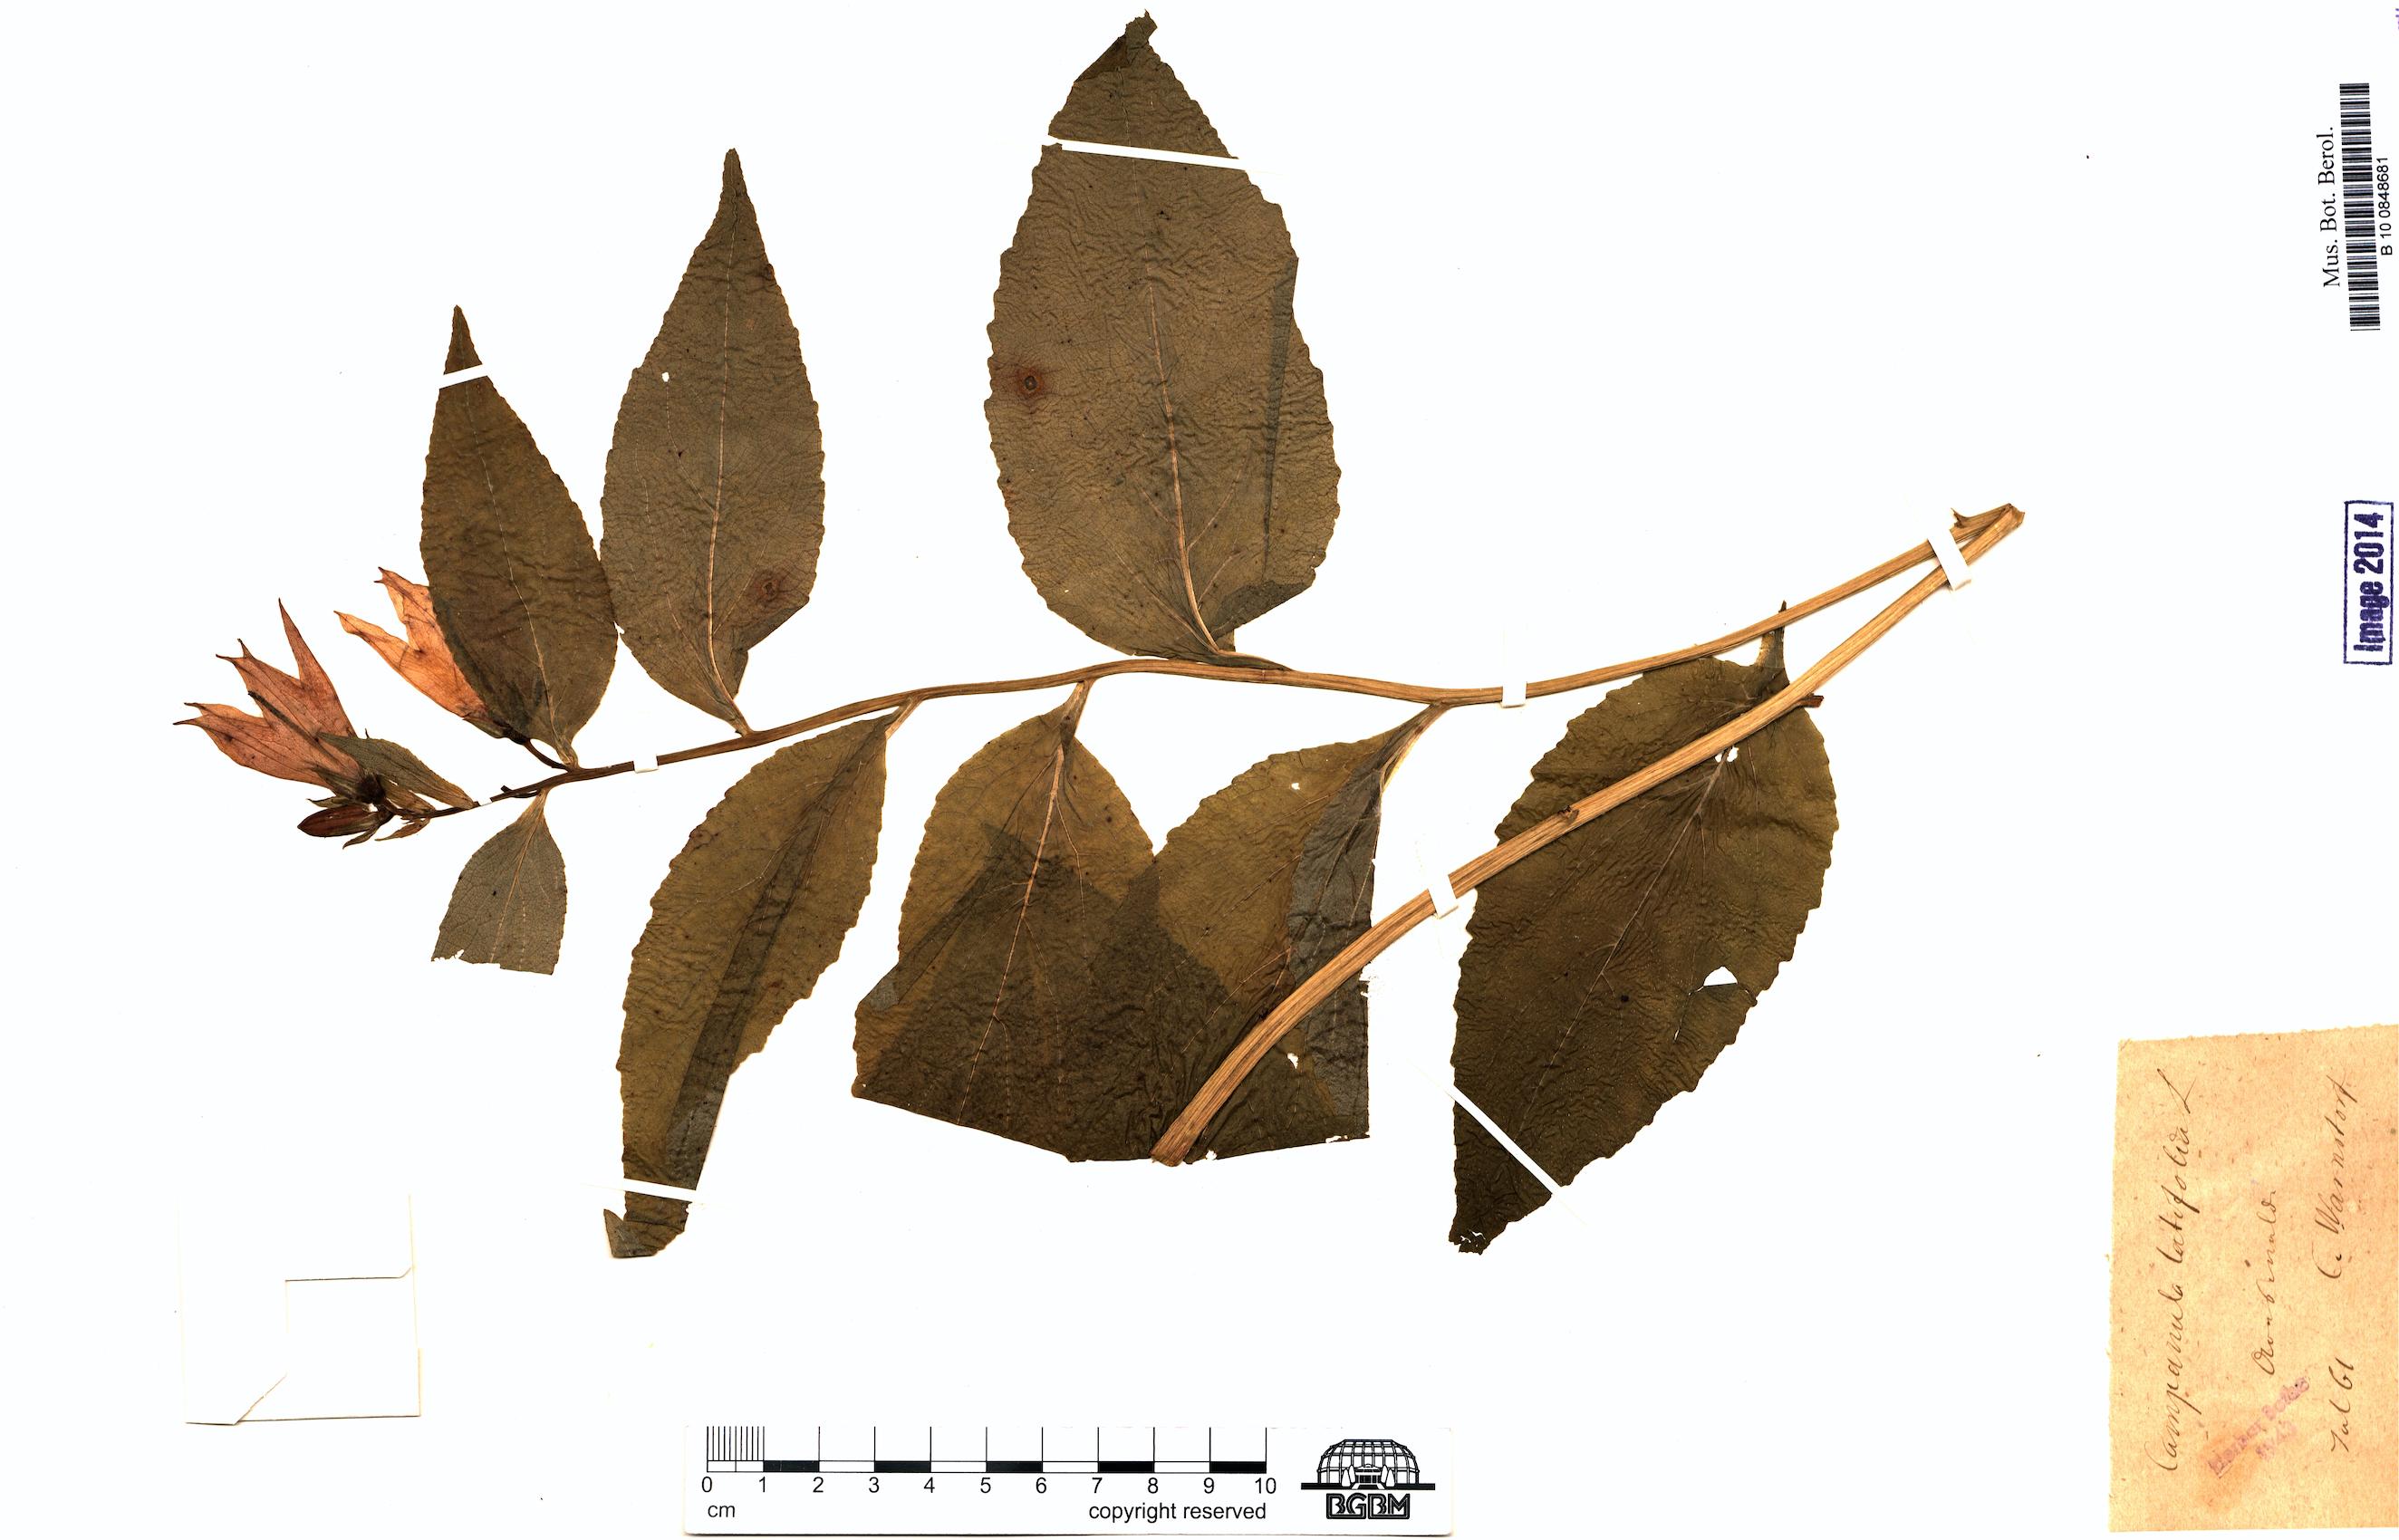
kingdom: Plantae
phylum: Tracheophyta
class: Magnoliopsida
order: Asterales
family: Campanulaceae
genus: Campanula
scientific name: Campanula latifolia
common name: Giant bellflower
